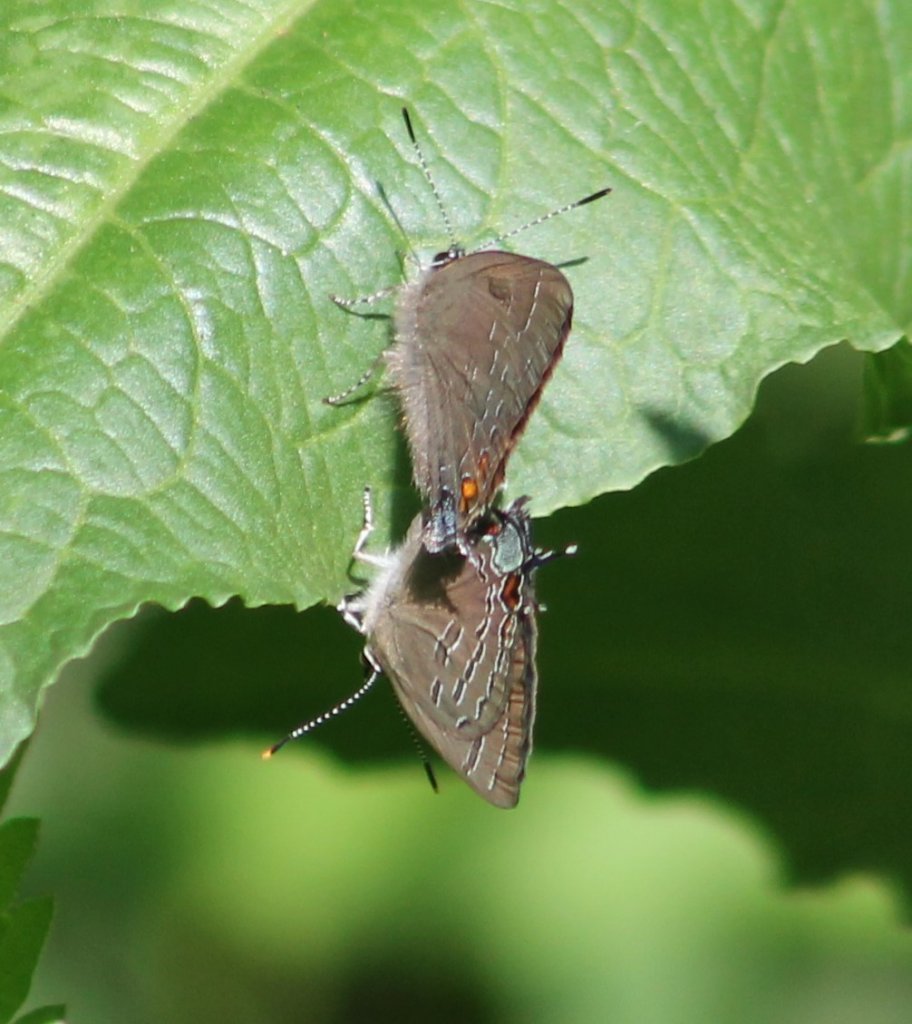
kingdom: Animalia
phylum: Arthropoda
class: Insecta
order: Lepidoptera
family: Lycaenidae
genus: Satyrium
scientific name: Satyrium calanus
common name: Banded Hairstreak
